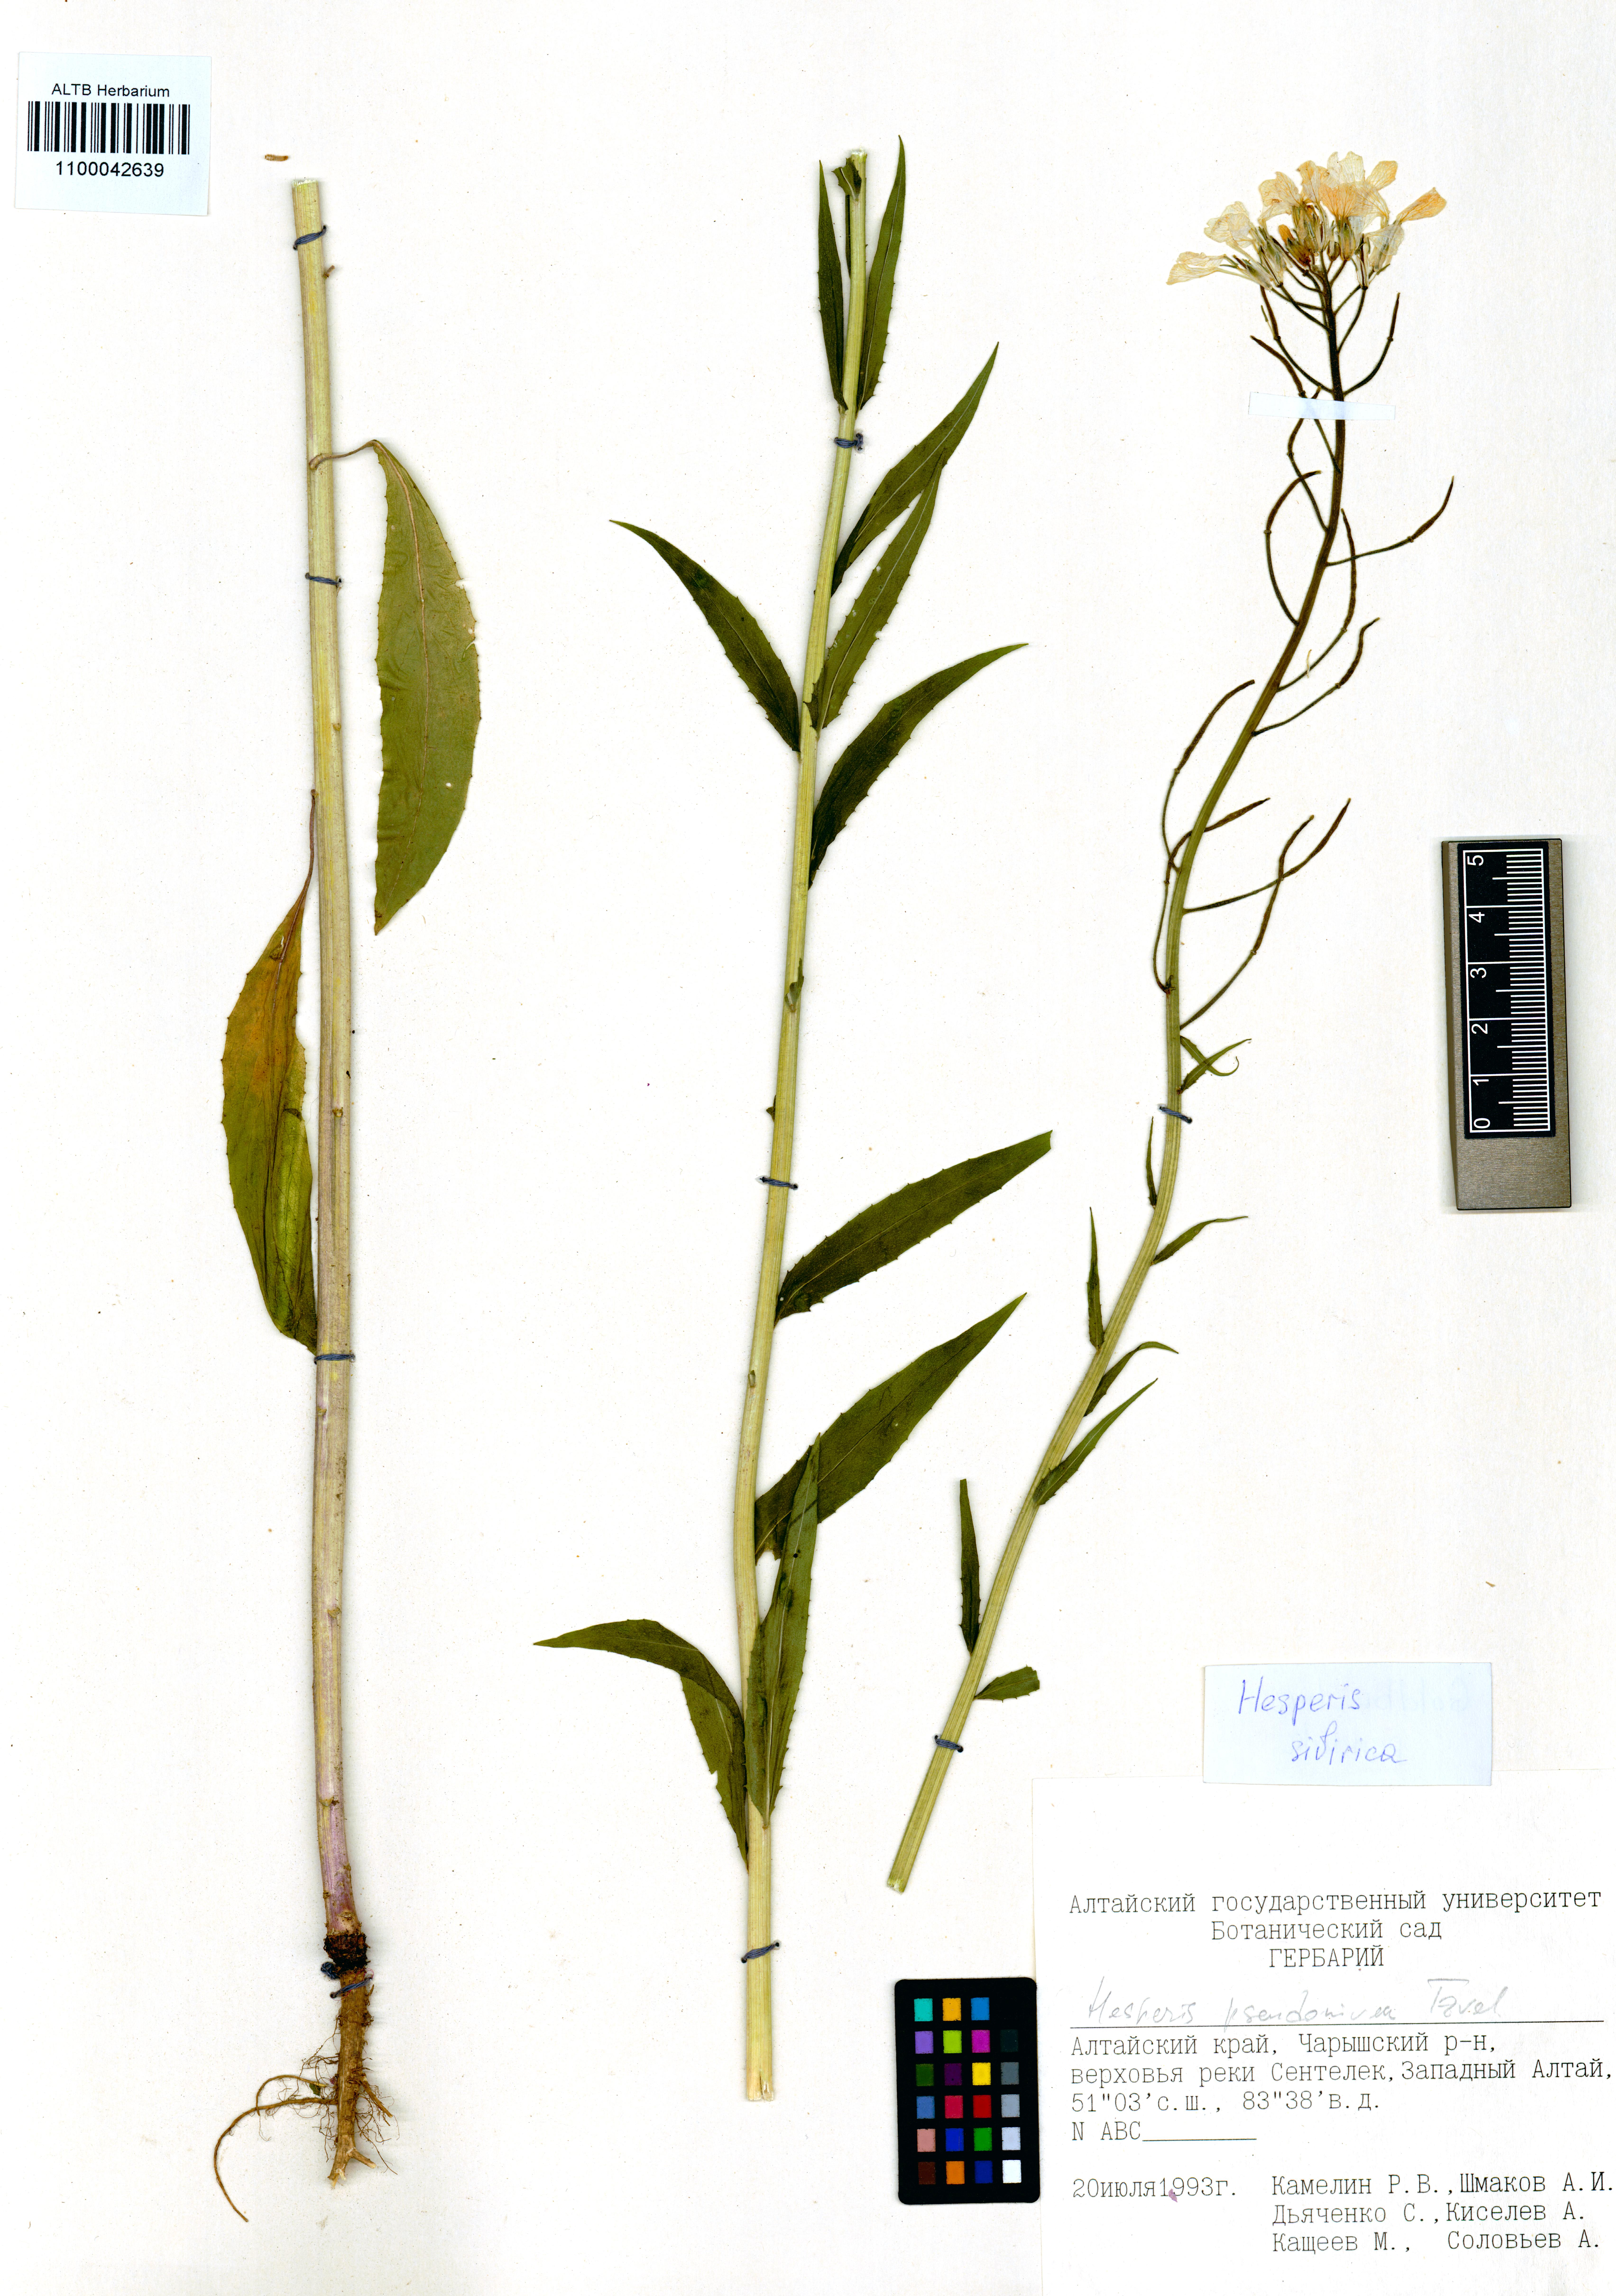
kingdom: Plantae
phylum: Tracheophyta
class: Magnoliopsida
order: Brassicales
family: Brassicaceae
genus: Hesperis
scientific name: Hesperis sibirica
